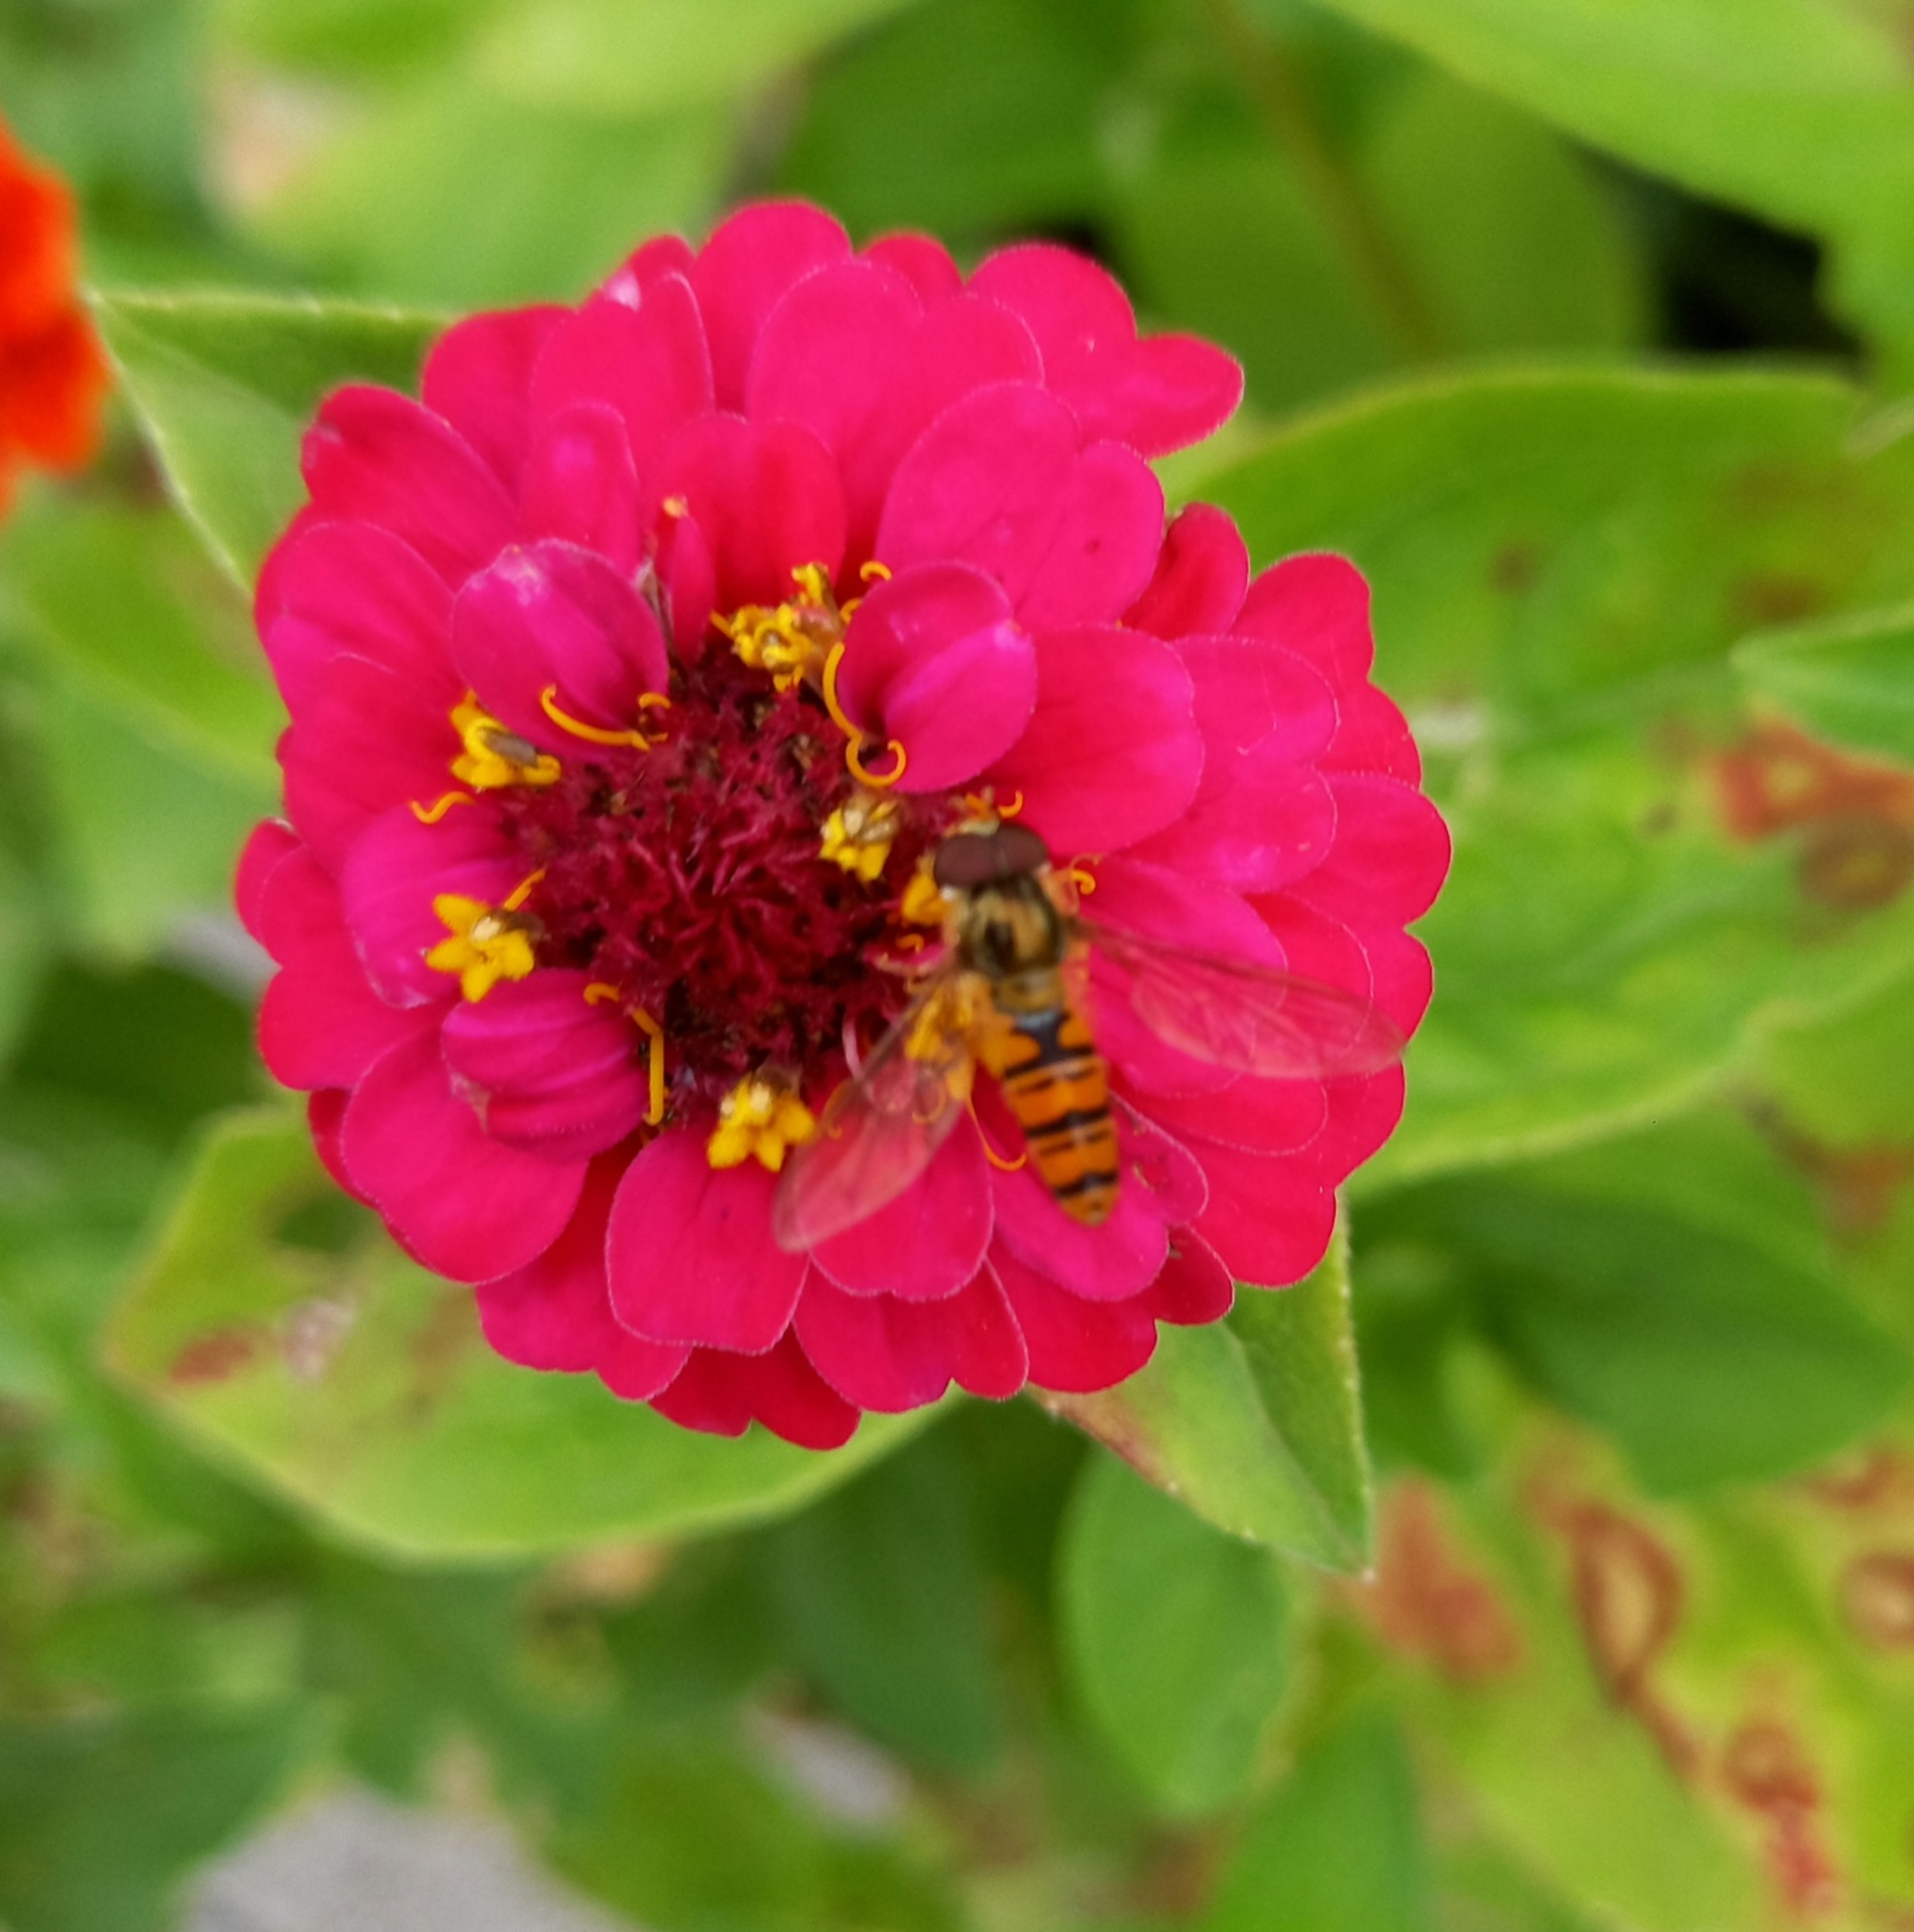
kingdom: Animalia
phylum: Arthropoda
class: Insecta
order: Diptera
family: Syrphidae
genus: Episyrphus
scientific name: Episyrphus balteatus
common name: Dobbeltbåndet svirreflue
